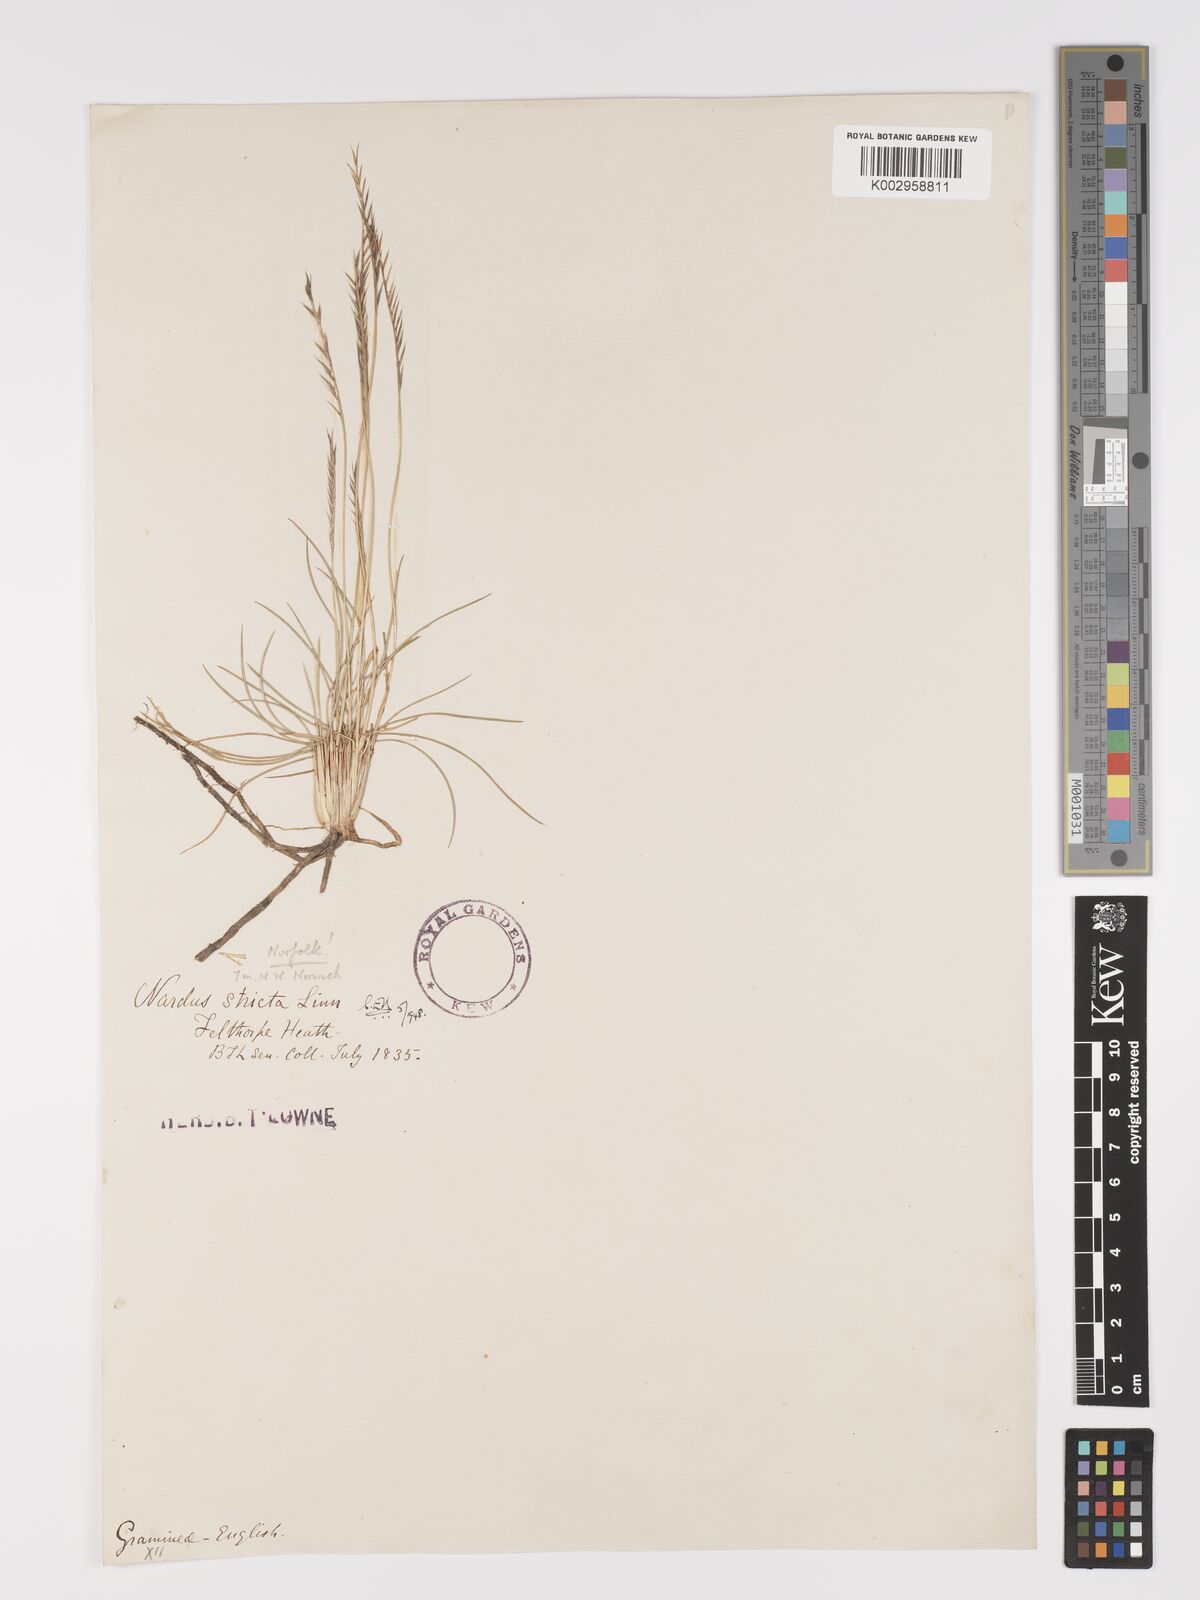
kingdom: Plantae
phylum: Tracheophyta
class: Liliopsida
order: Poales
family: Poaceae
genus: Nardus
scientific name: Nardus stricta
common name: Mat-grass
